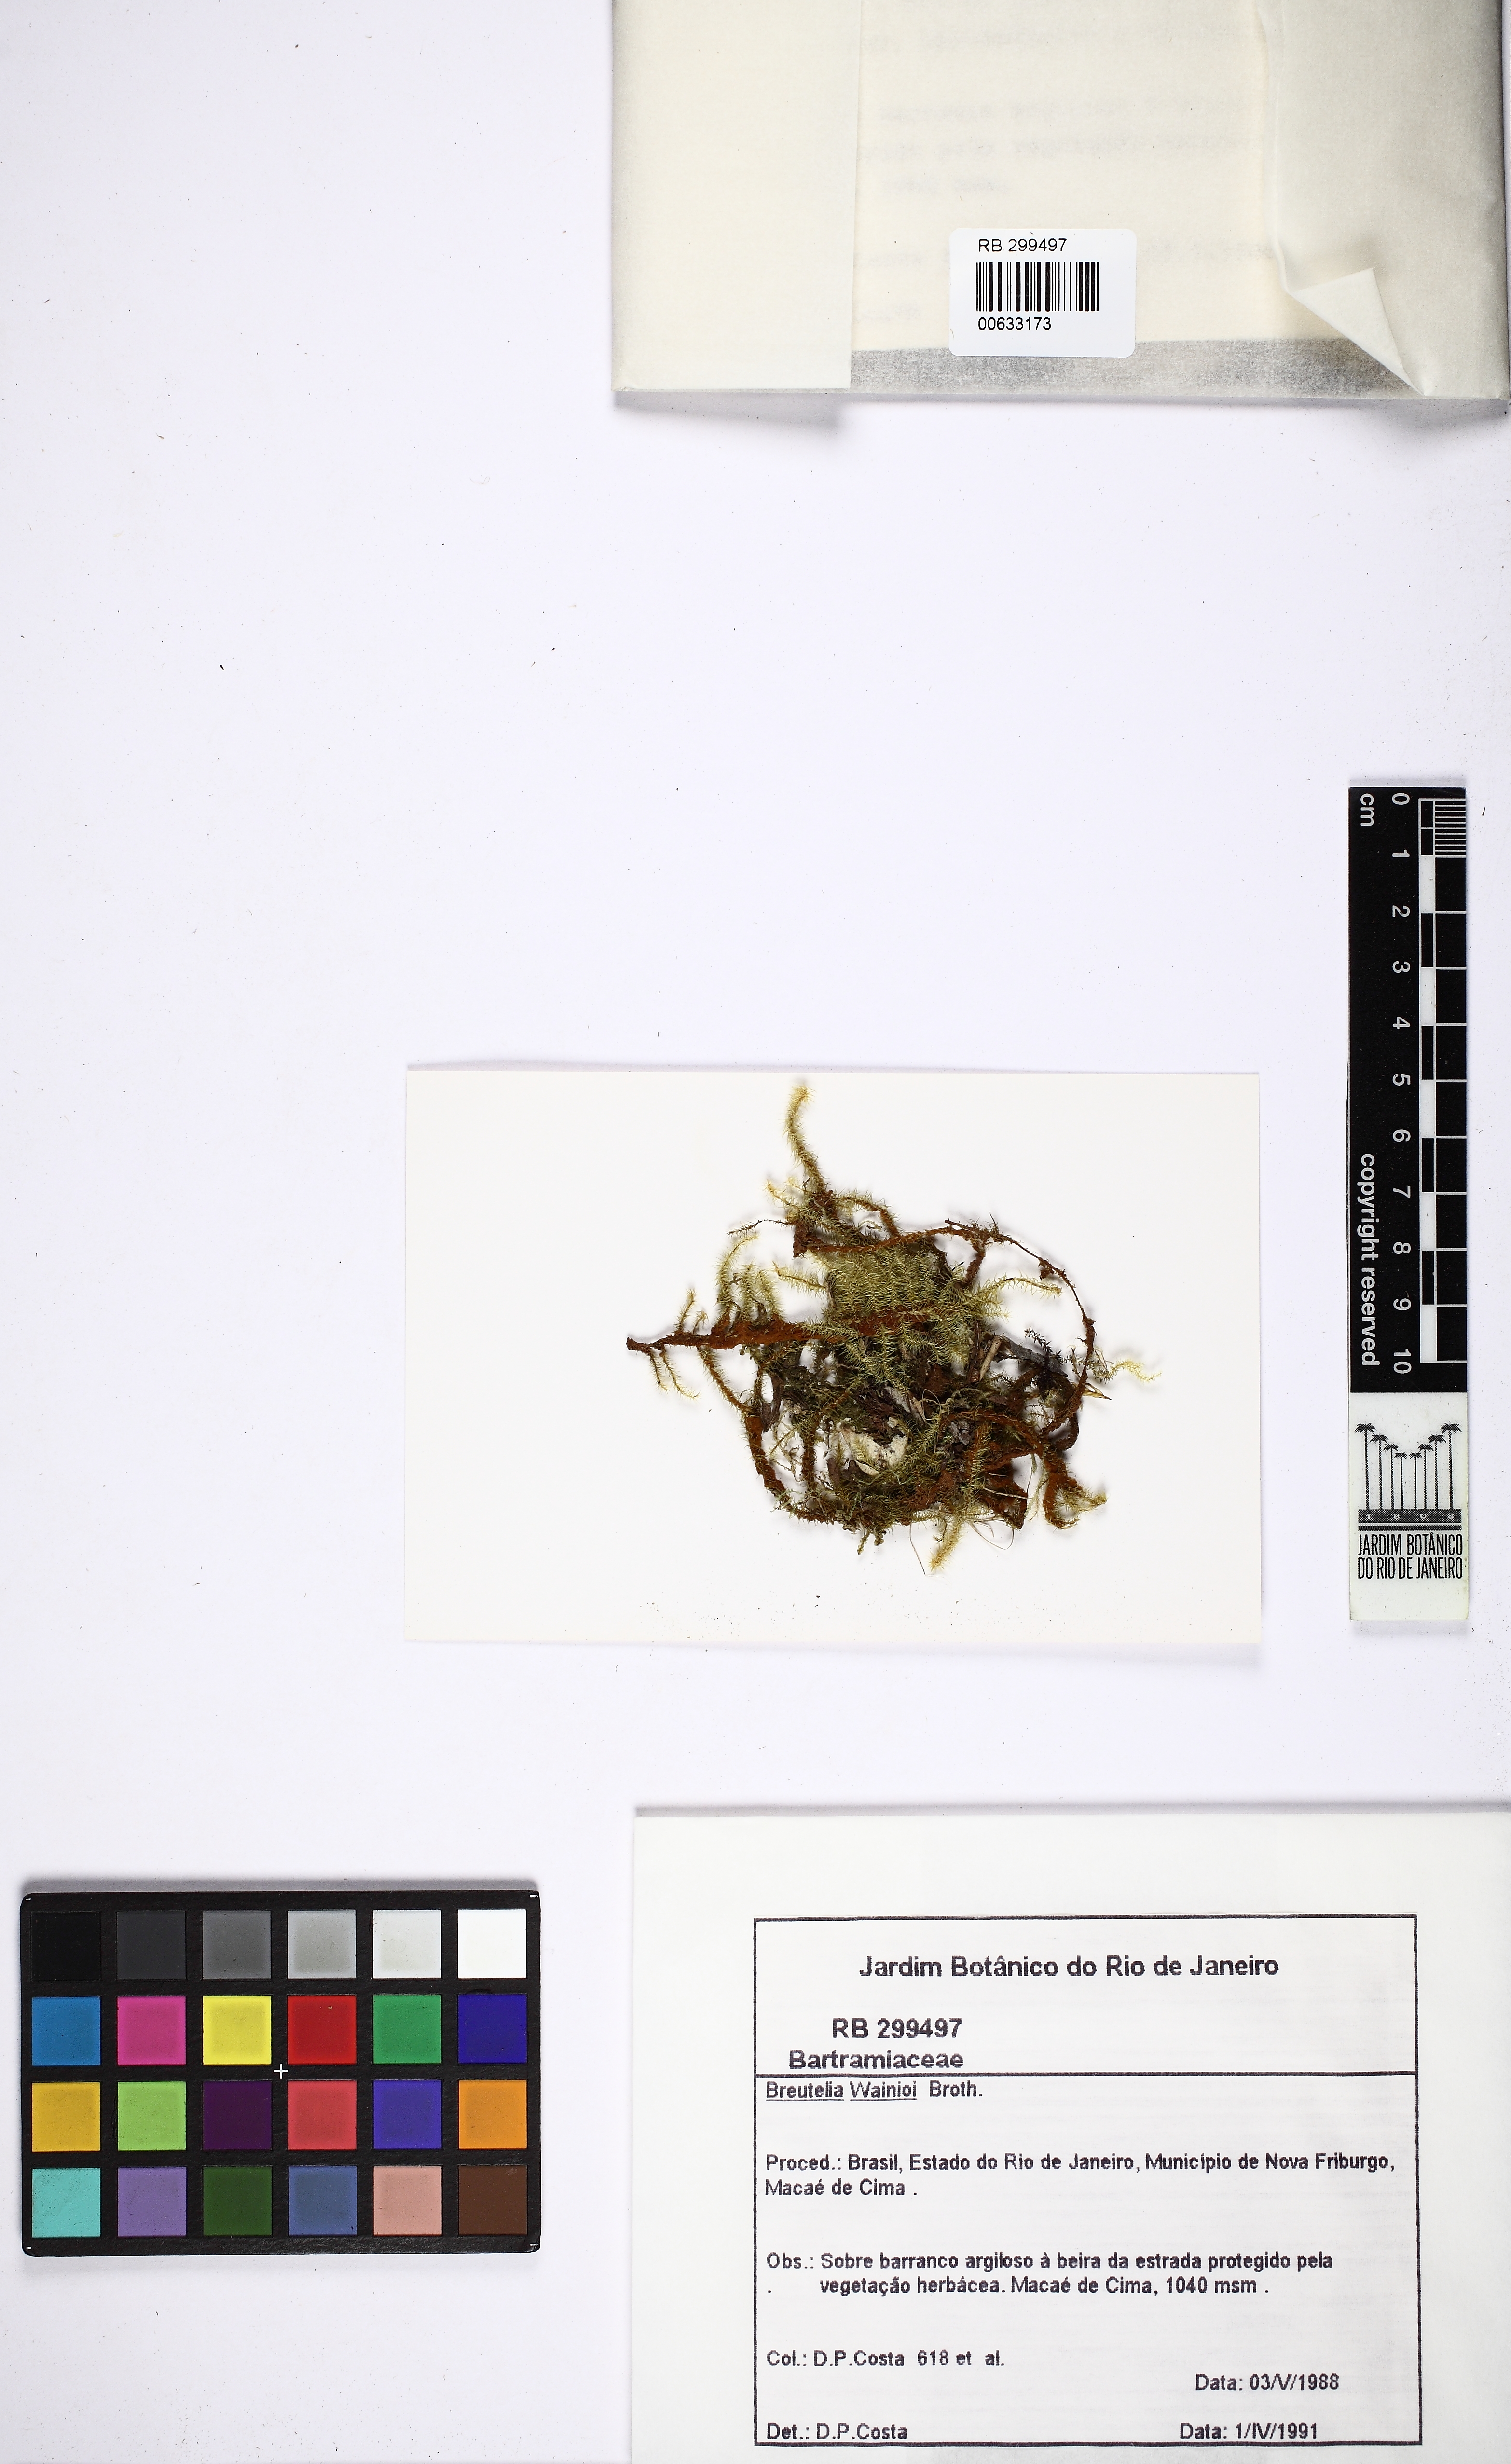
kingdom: Plantae
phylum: Bryophyta
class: Bryopsida
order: Bartramiales
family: Bartramiaceae
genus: Breutelia
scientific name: Breutelia wainioi
